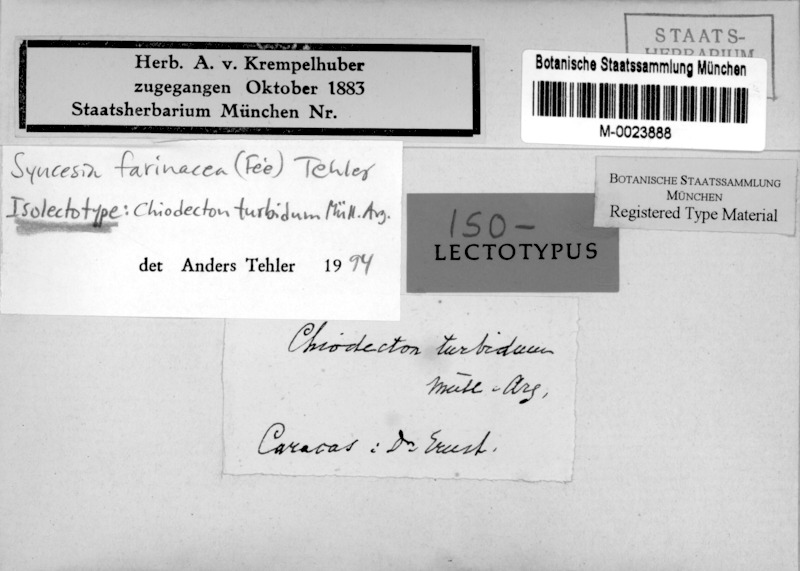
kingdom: Fungi
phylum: Ascomycota
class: Arthoniomycetes
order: Arthoniales
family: Roccellaceae
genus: Syncesia
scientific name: Syncesia farinacea
